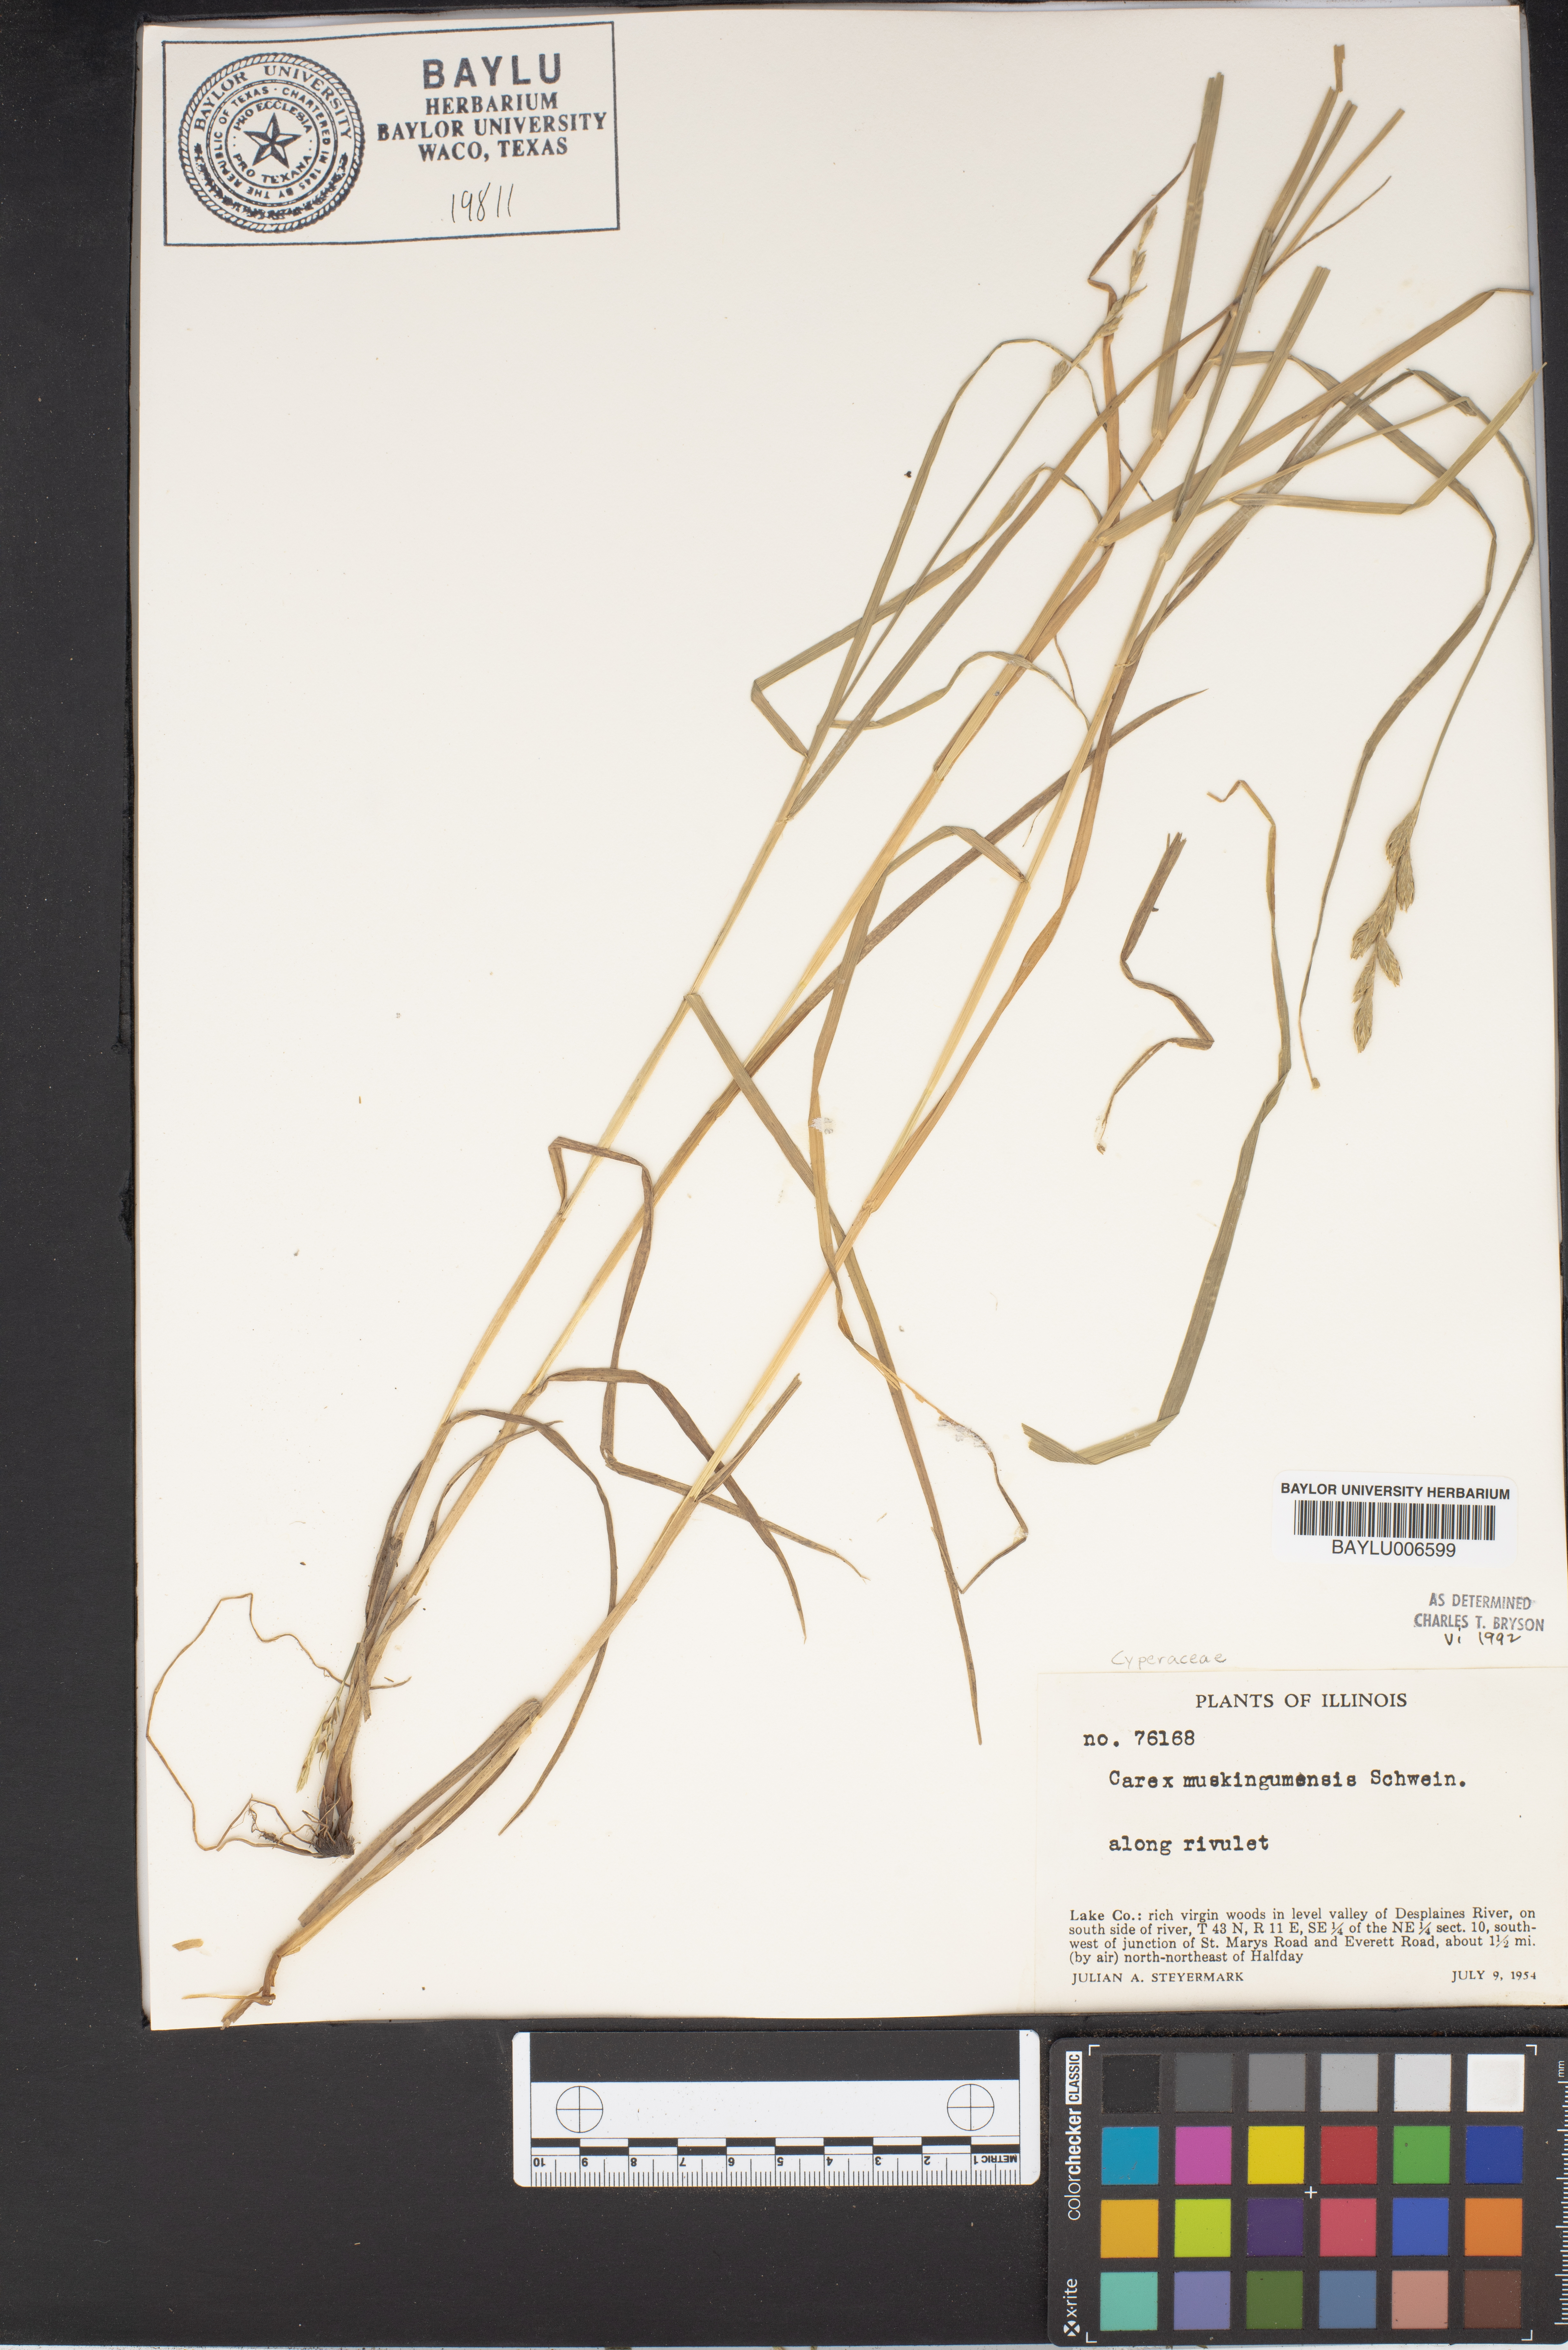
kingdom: Plantae
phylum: Tracheophyta
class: Liliopsida
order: Poales
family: Cyperaceae
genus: Carex
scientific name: Carex muskingumensis
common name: Muskingum sedge
